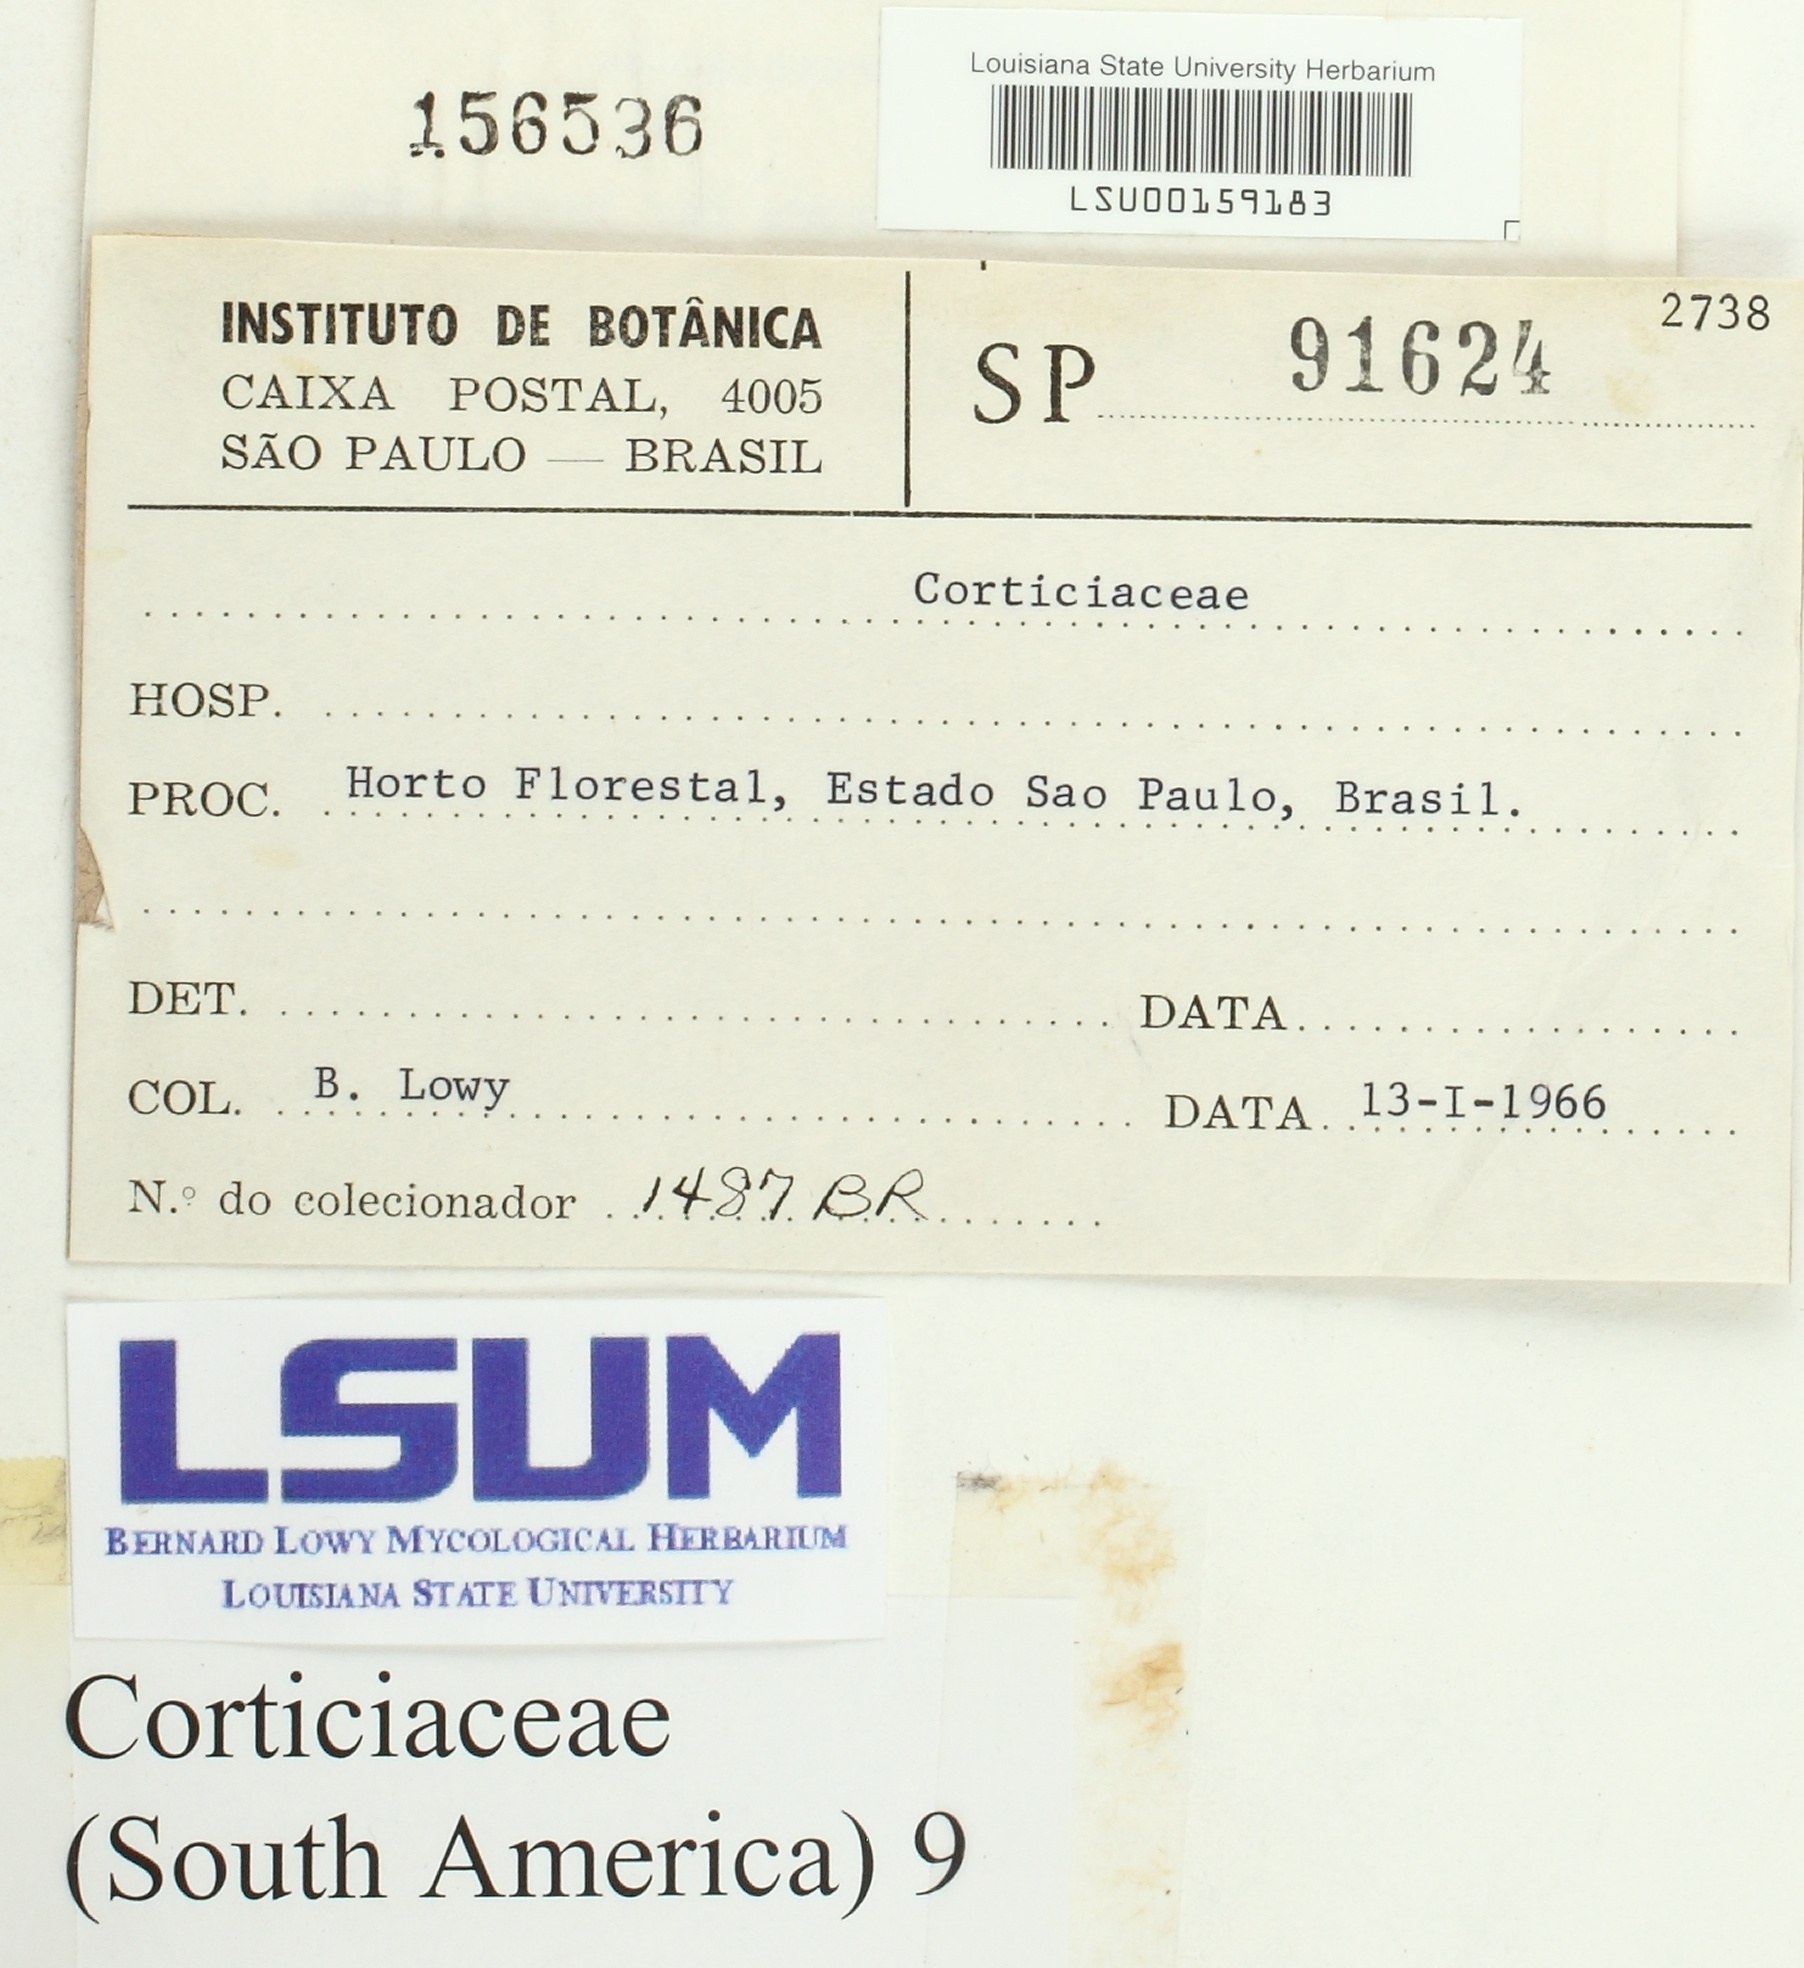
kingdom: Fungi
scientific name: Fungi
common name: Fungi
